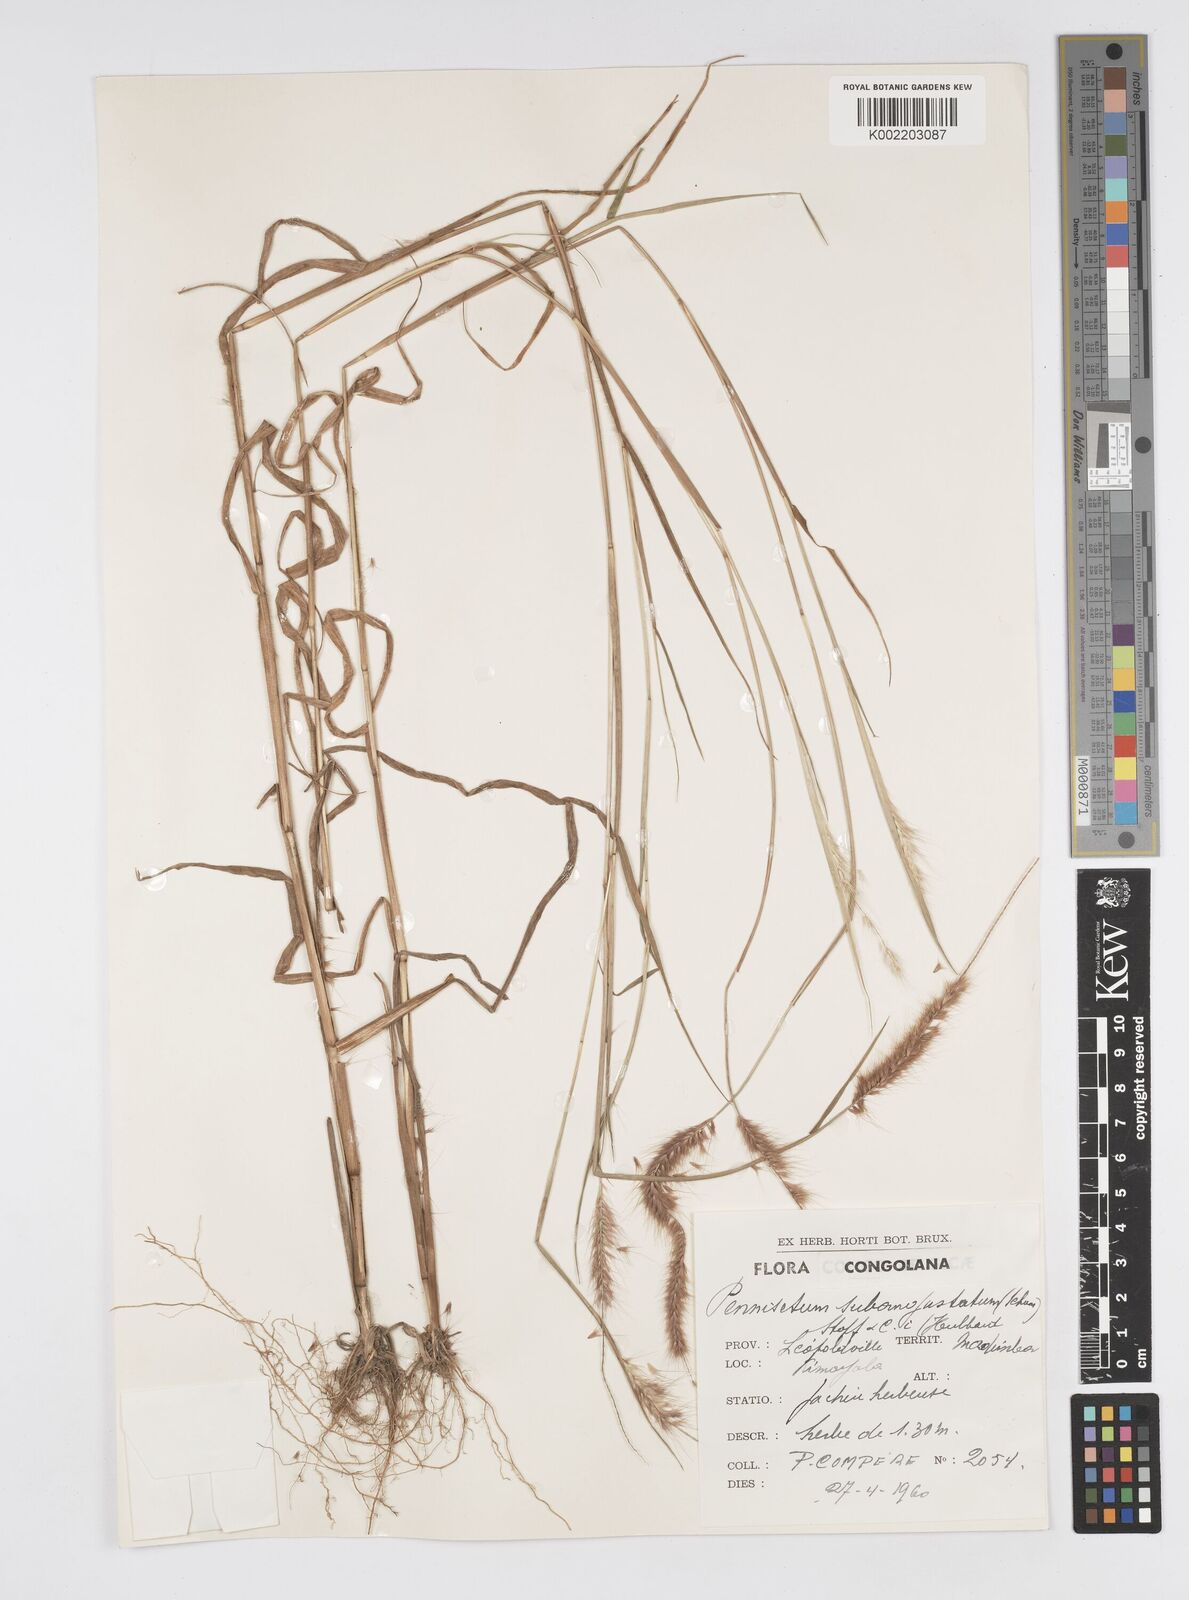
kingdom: Plantae
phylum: Tracheophyta
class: Liliopsida
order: Poales
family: Poaceae
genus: Setaria
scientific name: Setaria parviflora
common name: Knotroot bristle-grass
